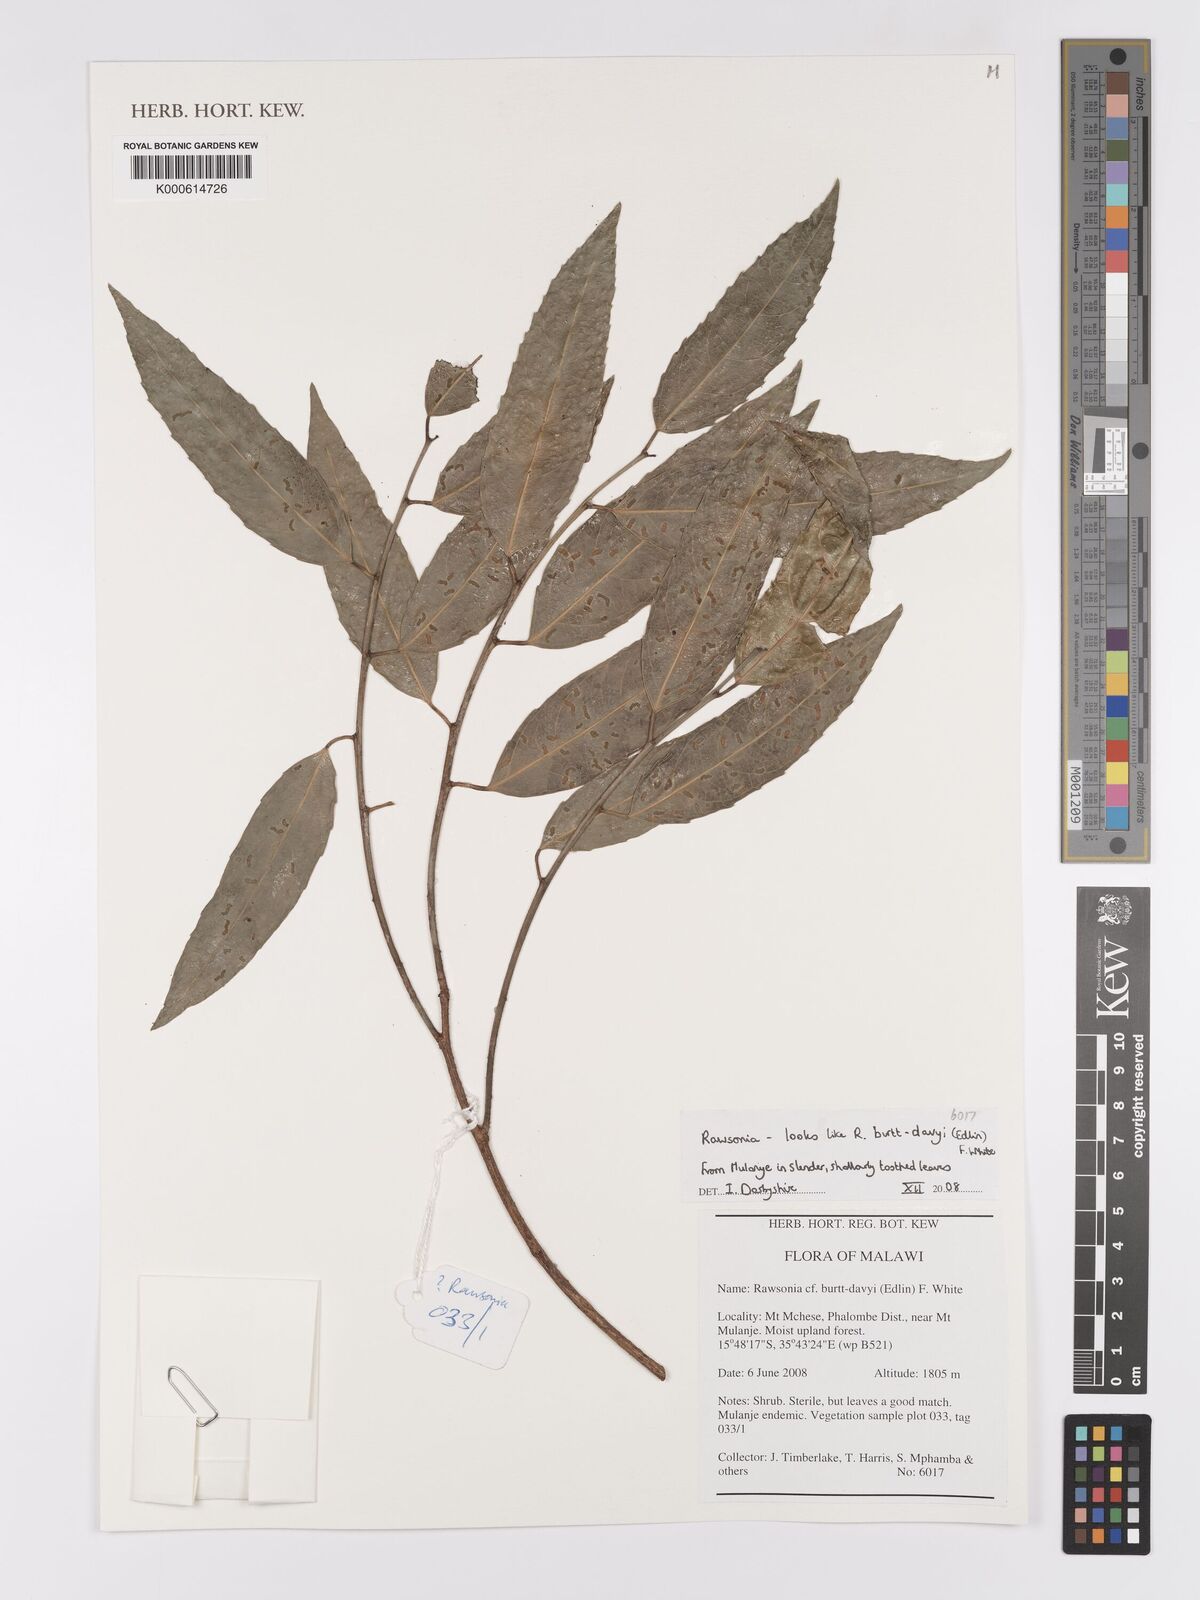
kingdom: Plantae
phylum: Tracheophyta
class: Magnoliopsida
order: Malpighiales
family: Achariaceae
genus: Rawsonia
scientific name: Rawsonia
